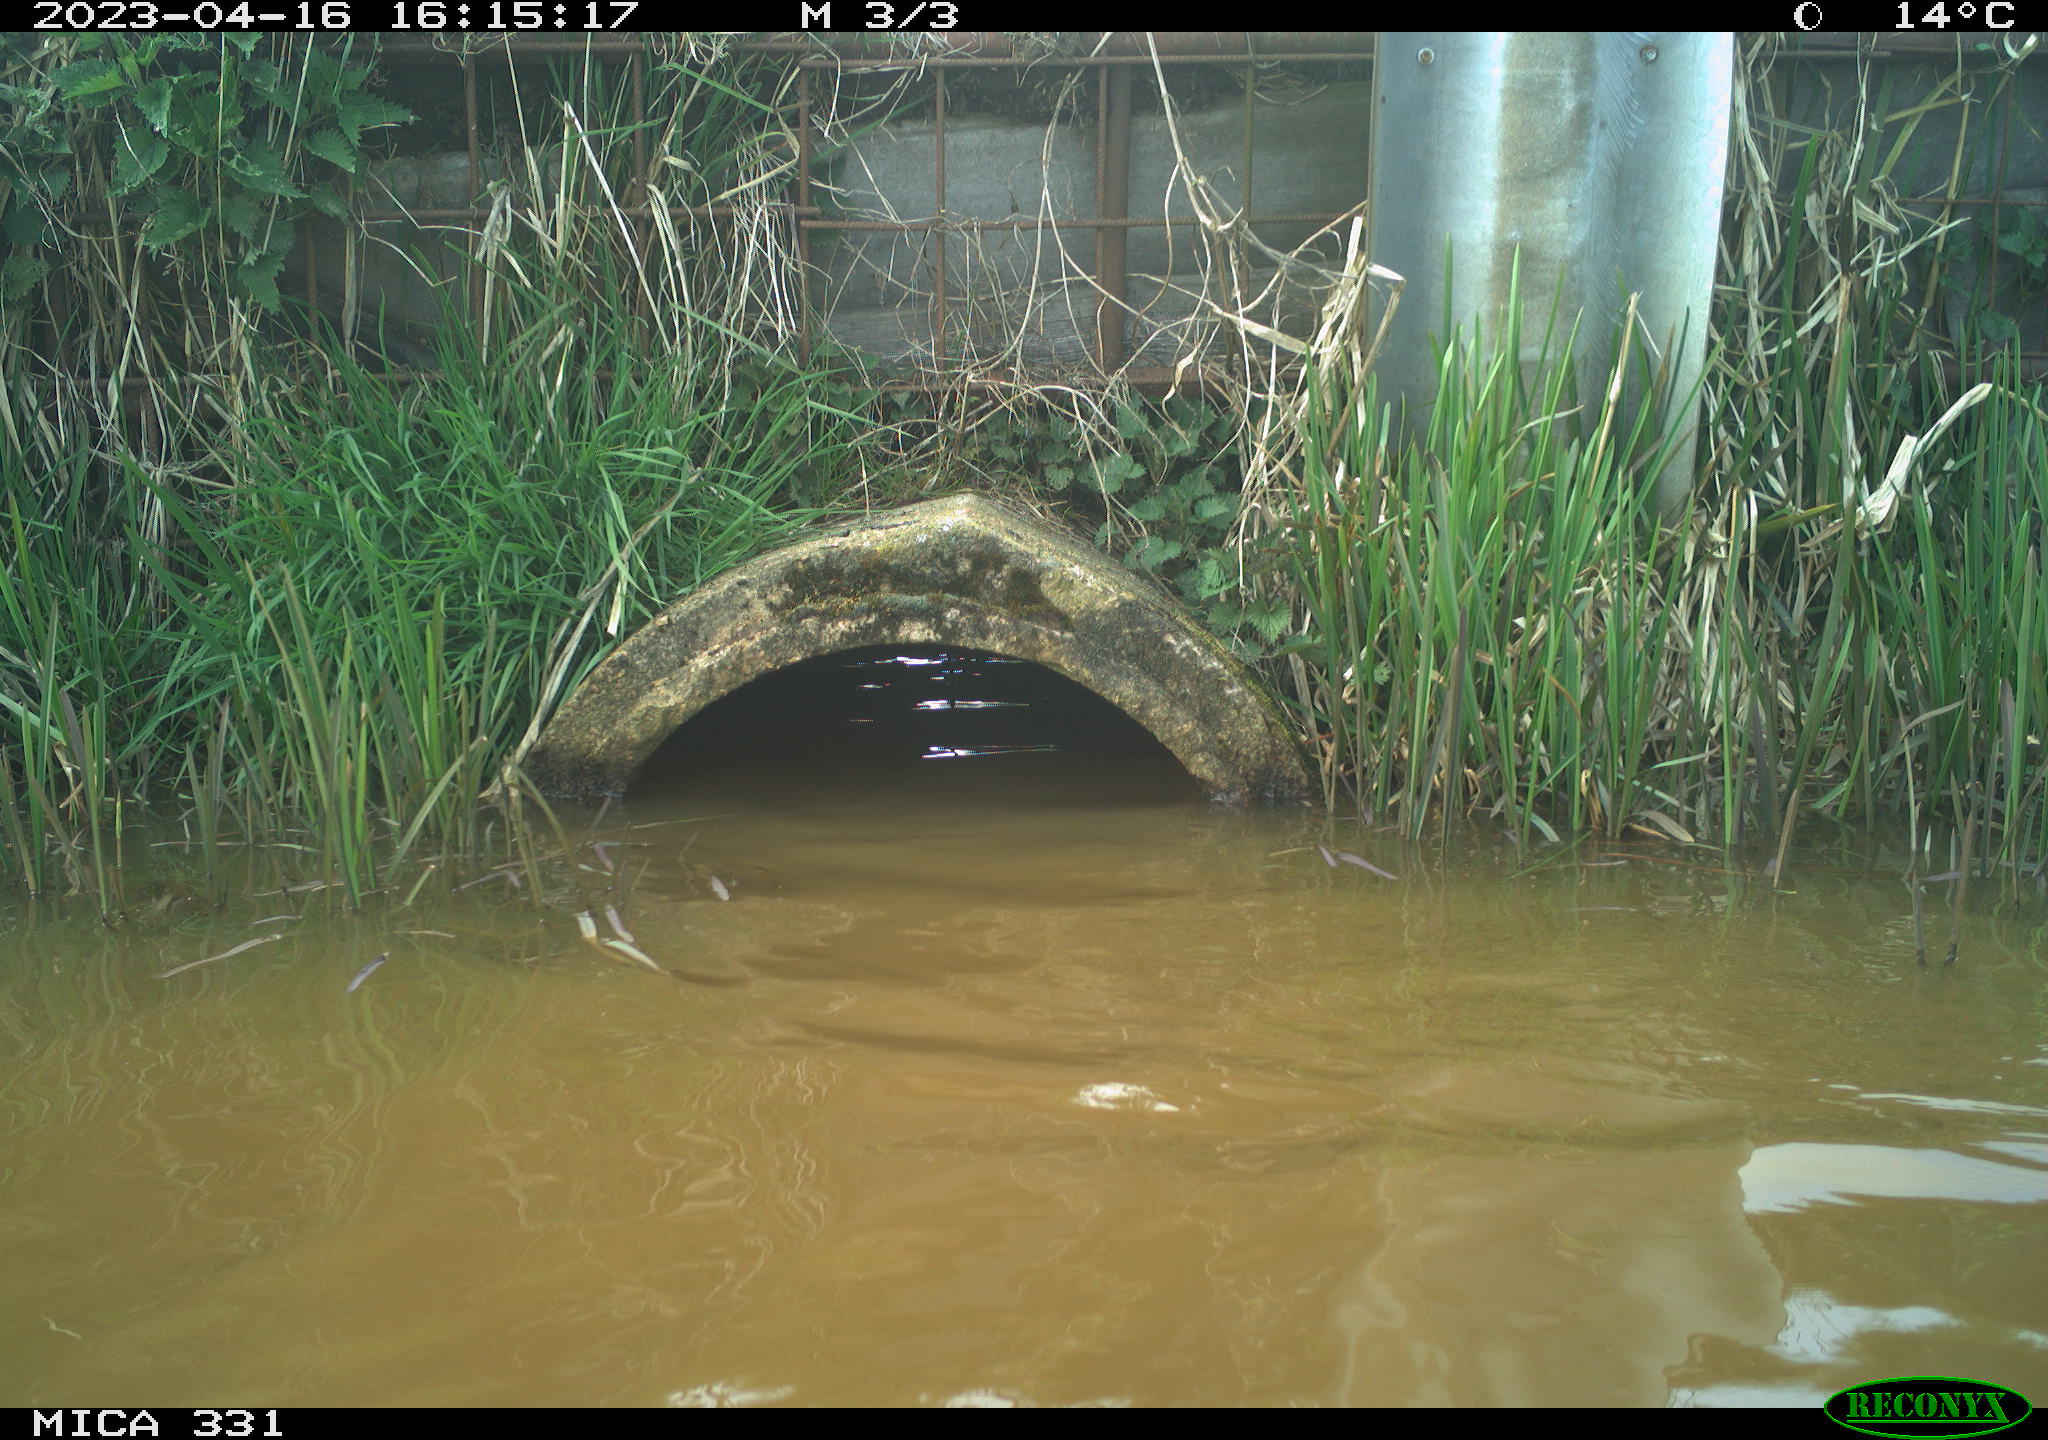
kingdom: Animalia
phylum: Chordata
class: Aves
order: Gruiformes
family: Rallidae
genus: Fulica
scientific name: Fulica atra
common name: Eurasian coot
